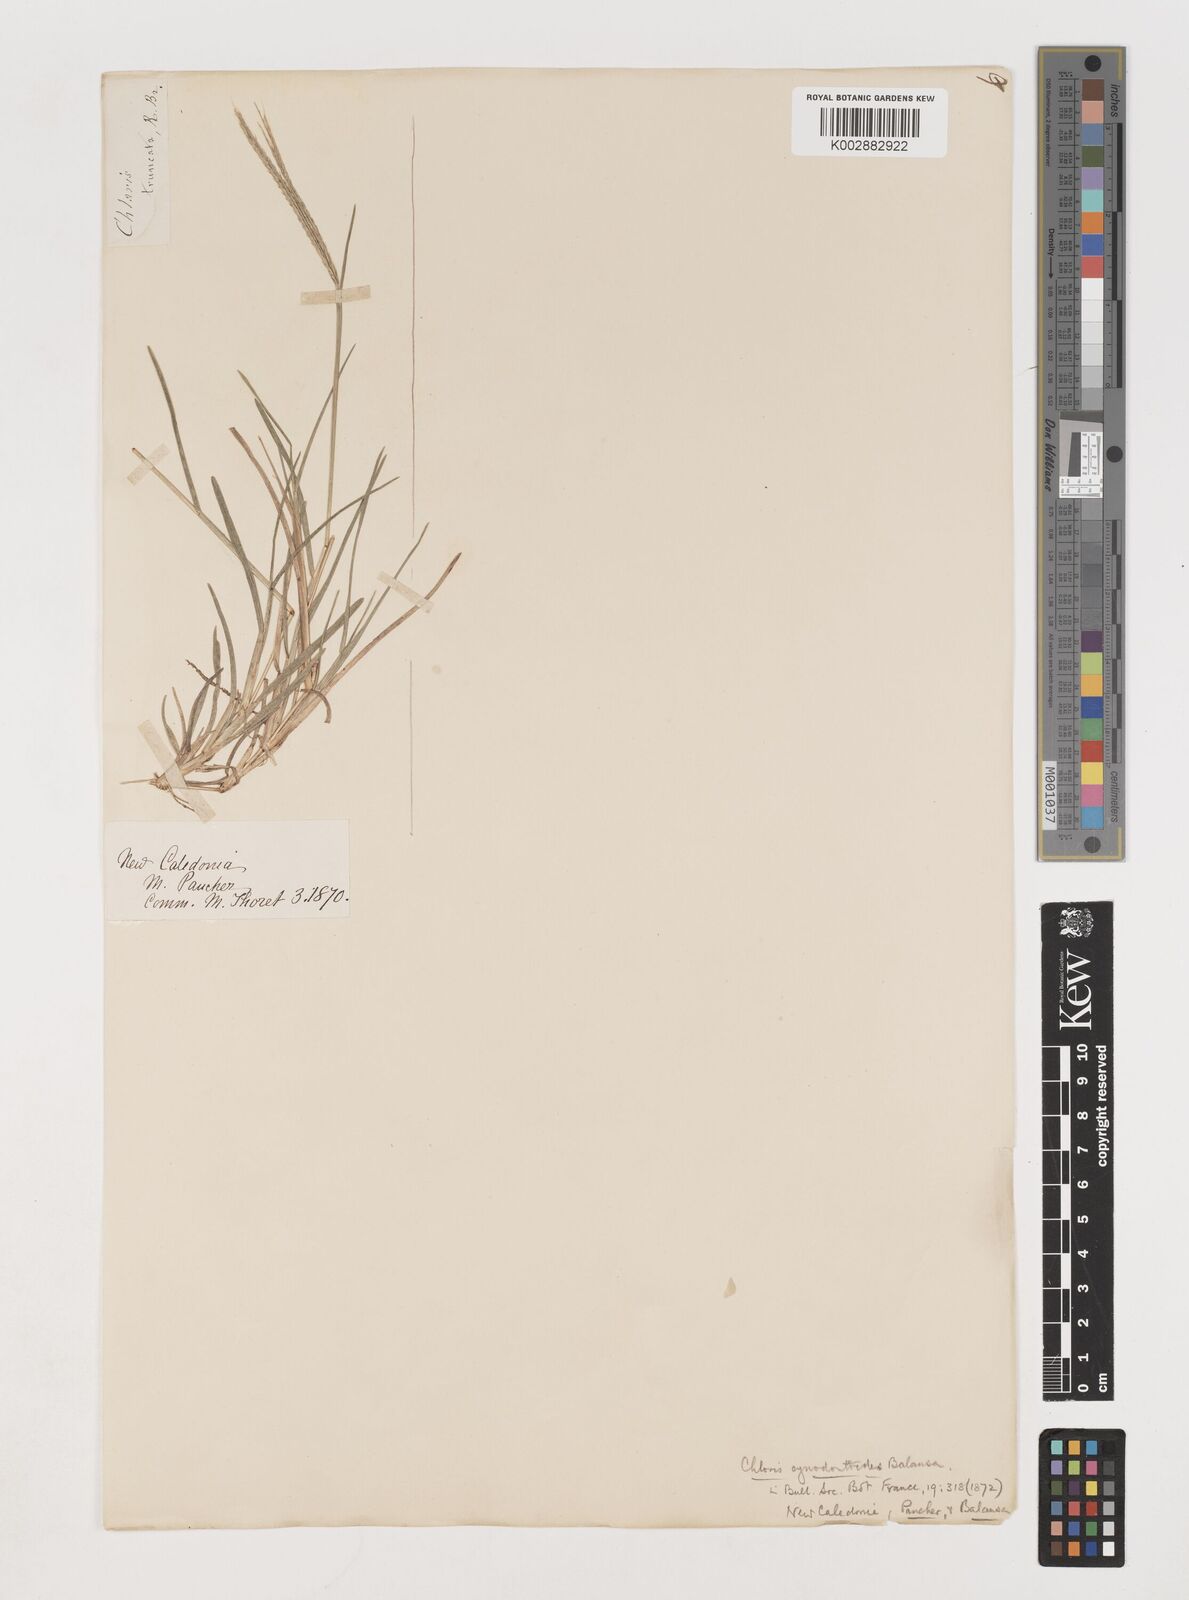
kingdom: Plantae
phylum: Tracheophyta
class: Liliopsida
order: Poales
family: Poaceae
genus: Chloris
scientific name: Chloris divaricata
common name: Spreading windmill grass
